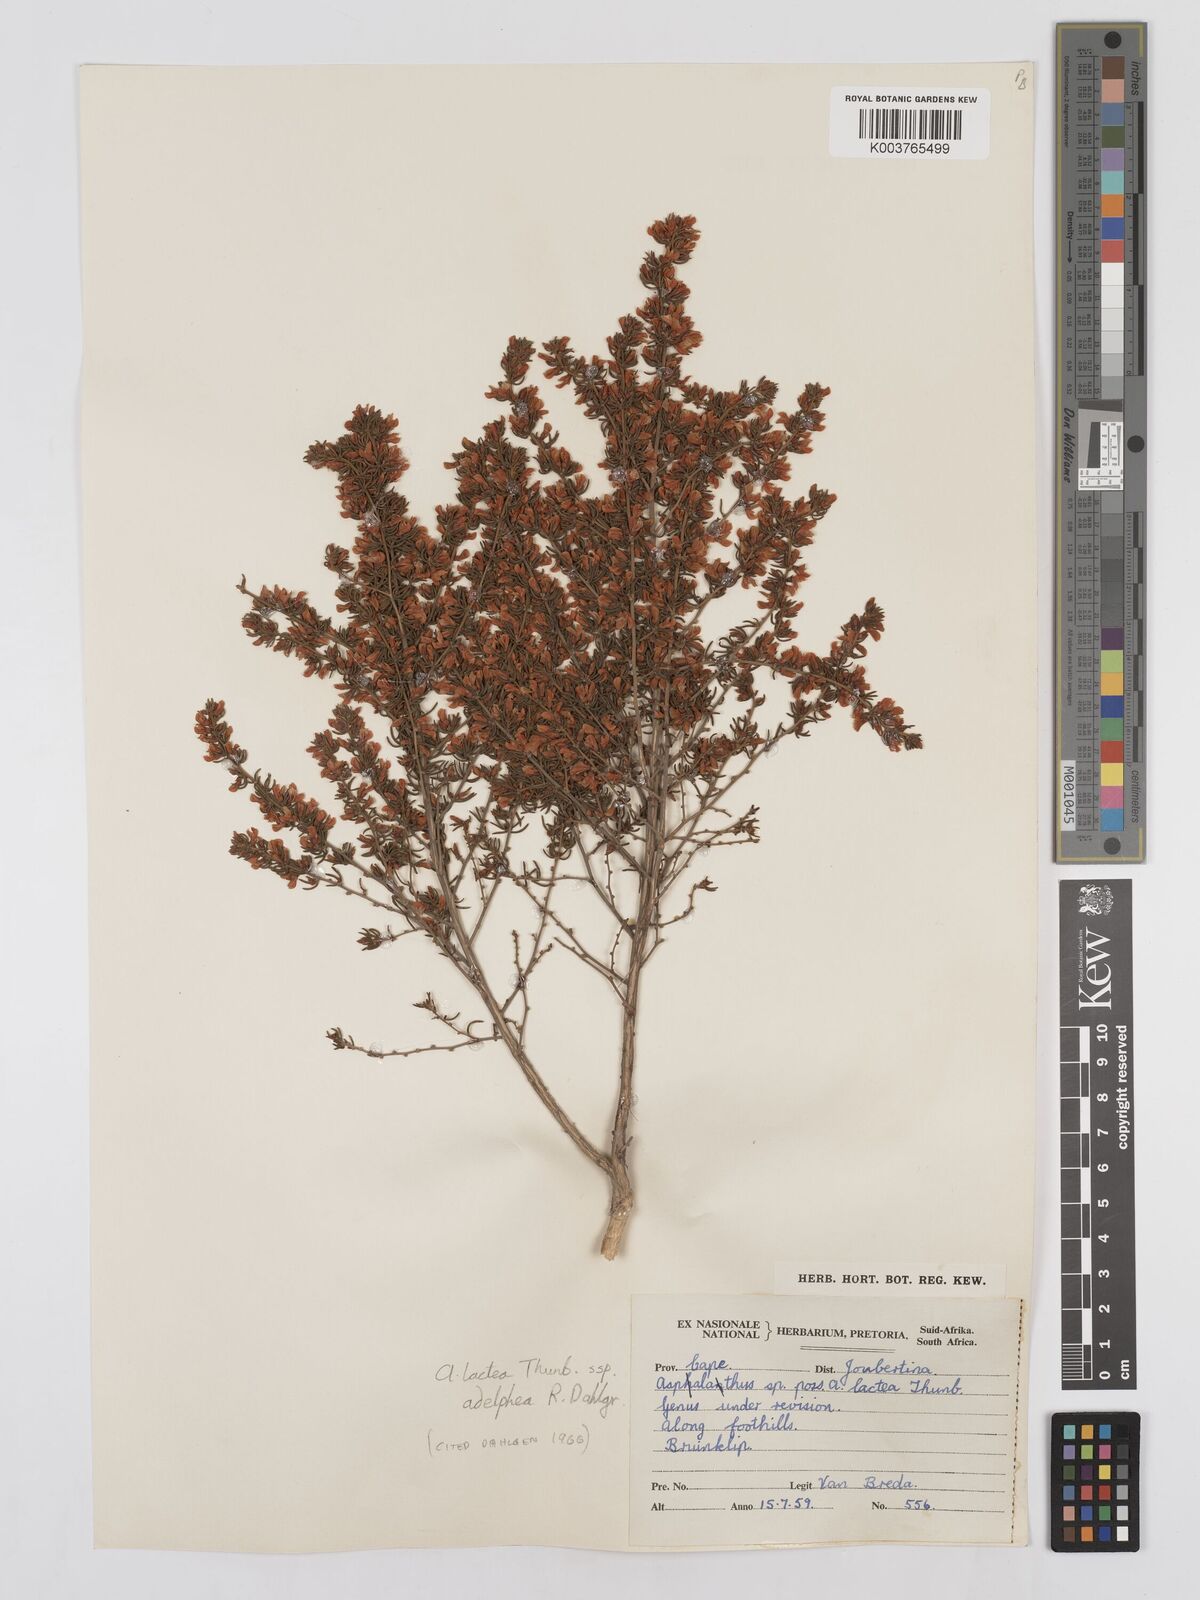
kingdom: Plantae
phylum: Tracheophyta
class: Magnoliopsida
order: Fabales
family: Fabaceae
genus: Aspalathus
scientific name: Aspalathus lactea
